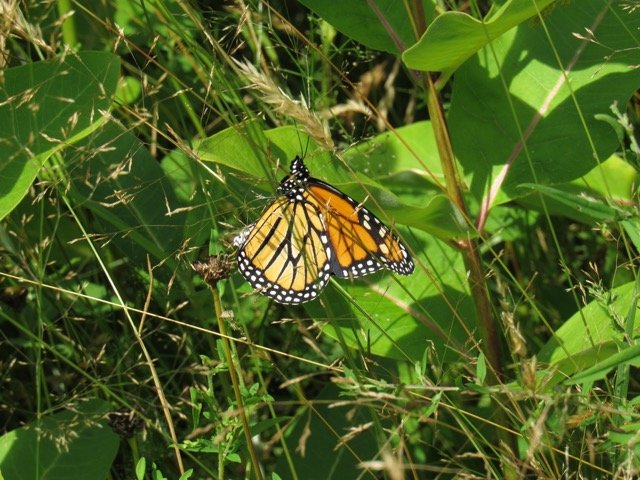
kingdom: Animalia
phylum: Arthropoda
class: Insecta
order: Lepidoptera
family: Nymphalidae
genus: Danaus
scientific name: Danaus plexippus
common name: Monarch
